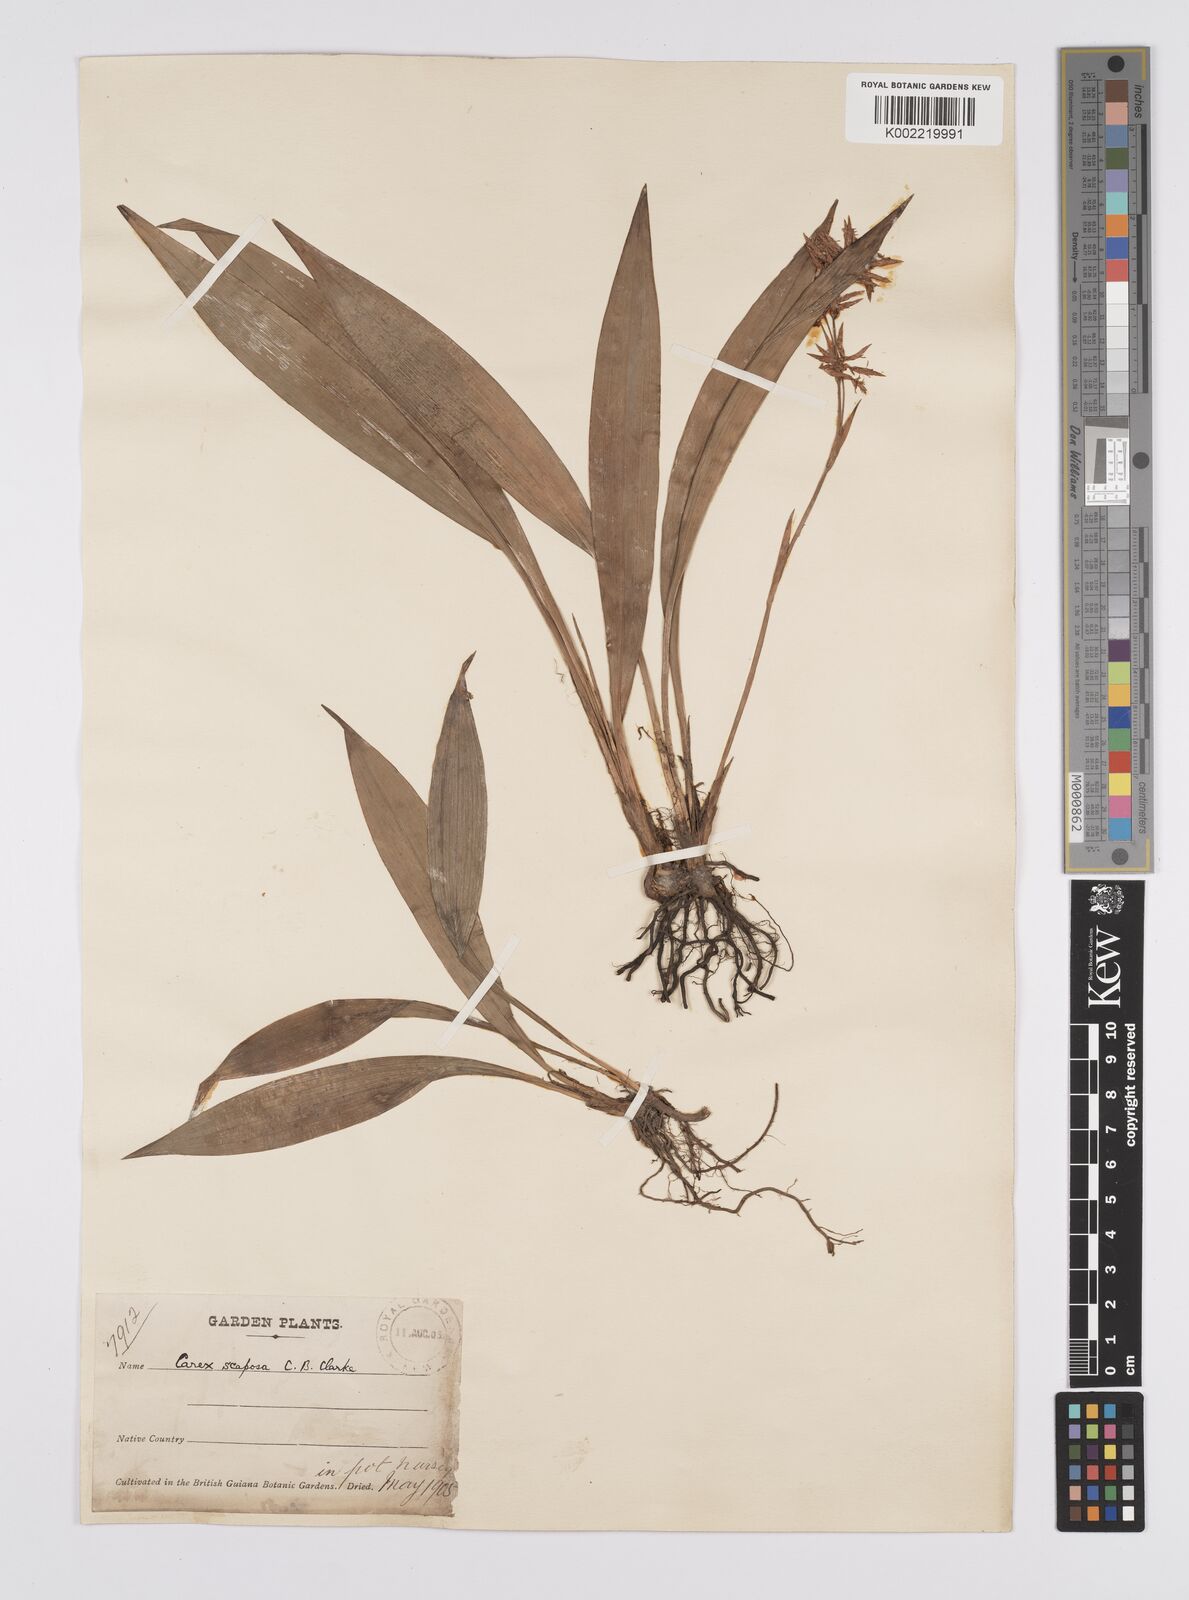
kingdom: Plantae
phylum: Tracheophyta
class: Liliopsida
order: Poales
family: Cyperaceae
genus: Carex
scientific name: Carex scaposa
